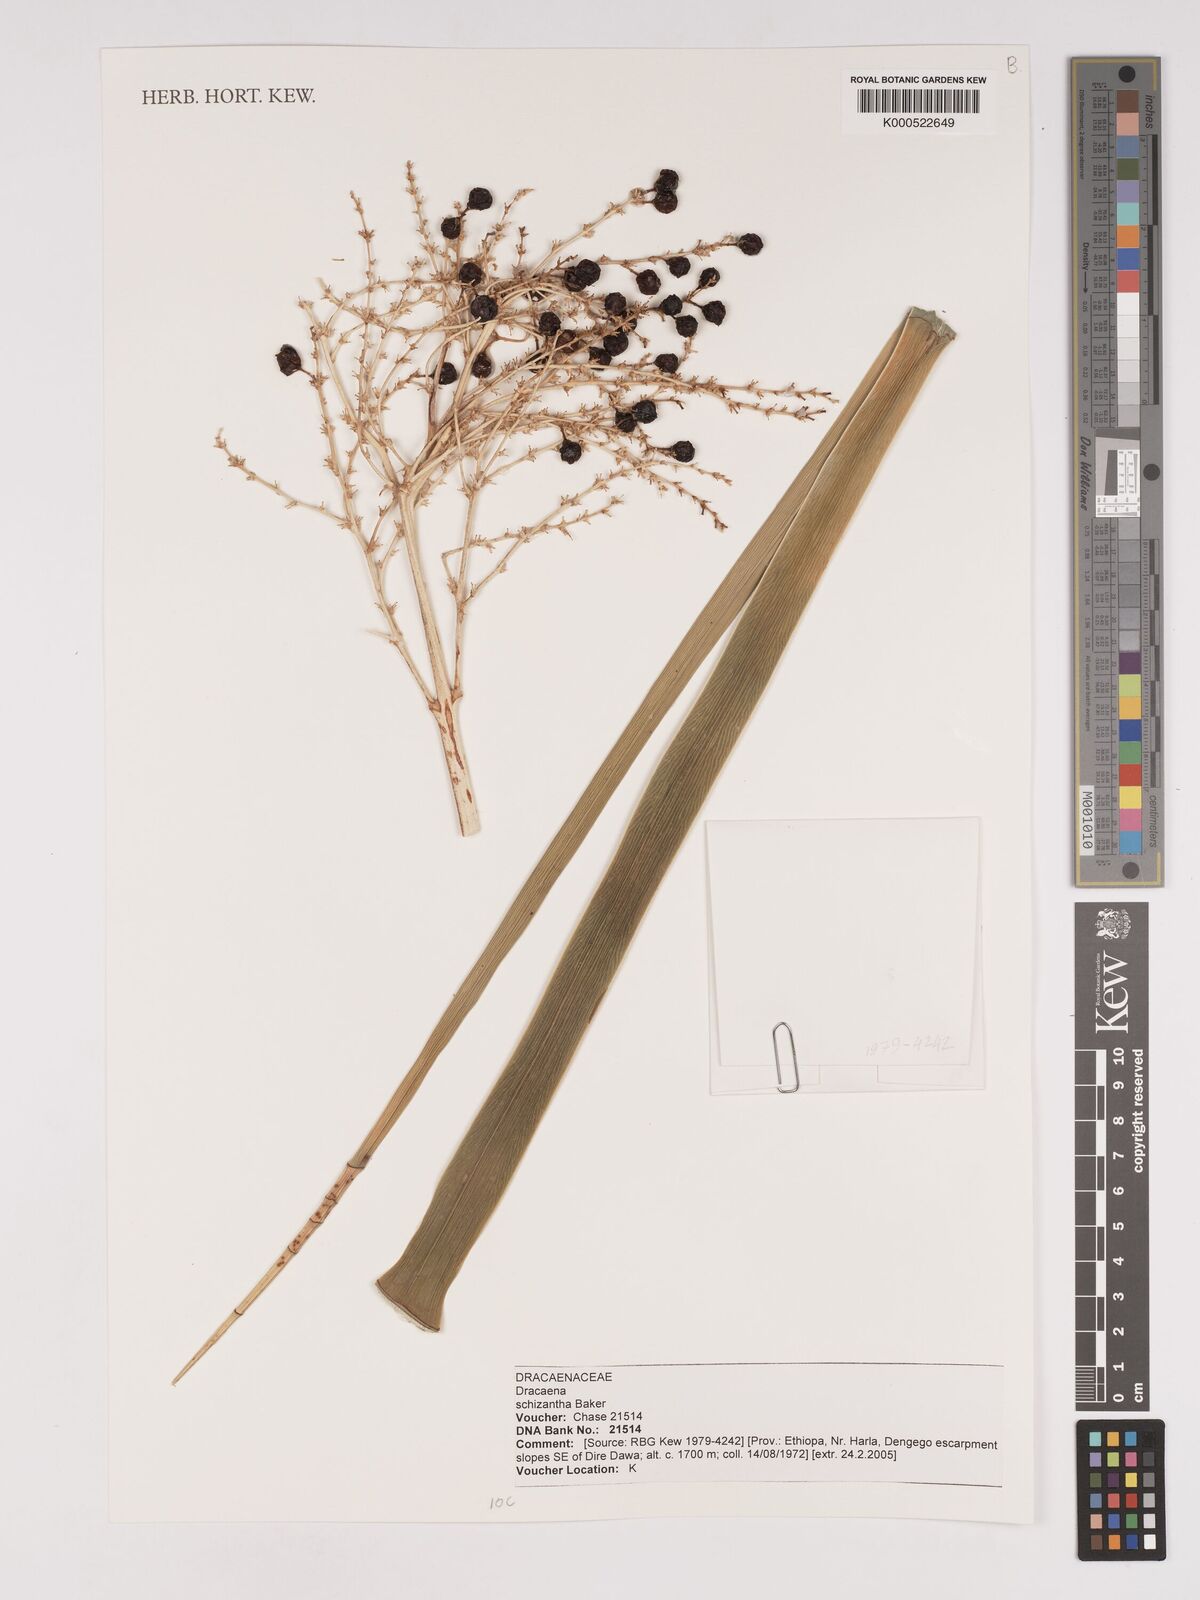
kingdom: Plantae
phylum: Tracheophyta
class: Liliopsida
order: Asparagales
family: Asparagaceae
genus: Dracaena
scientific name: Dracaena ombet
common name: Gabal elba dragon tree
